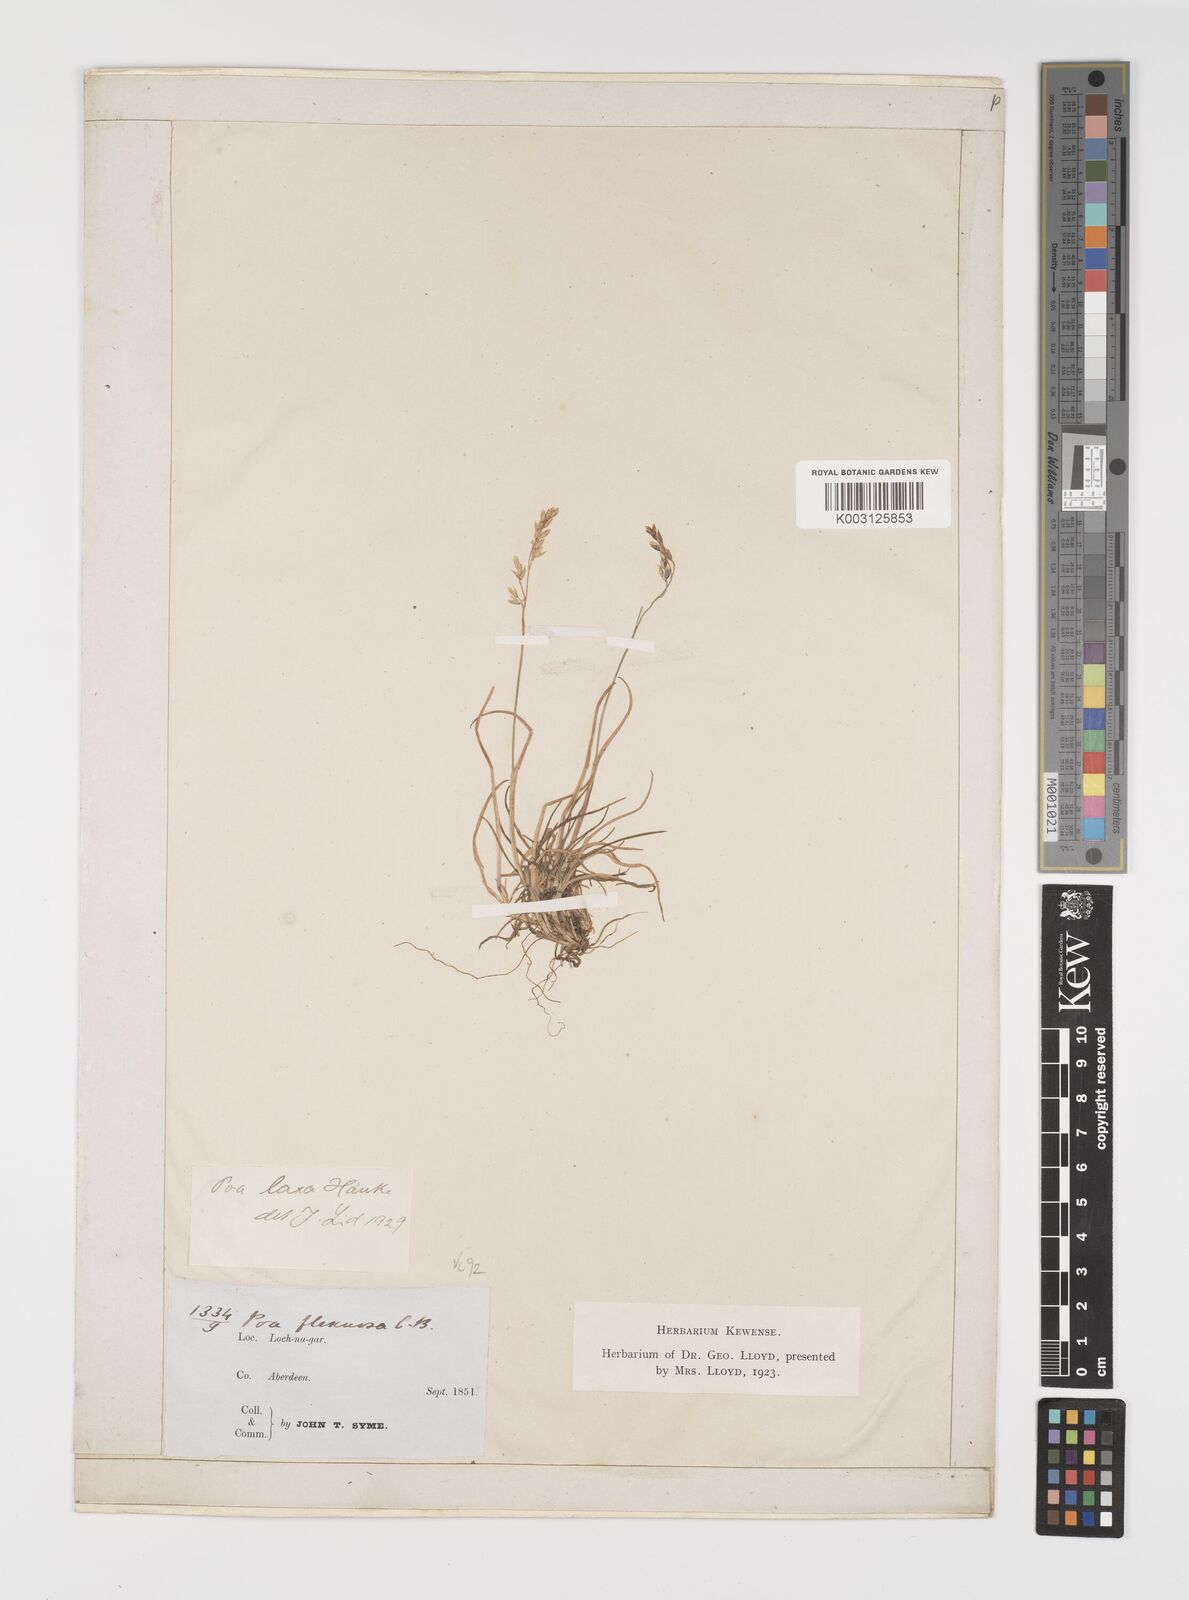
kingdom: Plantae
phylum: Tracheophyta
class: Liliopsida
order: Poales
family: Poaceae
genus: Eragrostis
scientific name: Eragrostis cilianensis
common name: Stinkgrass
